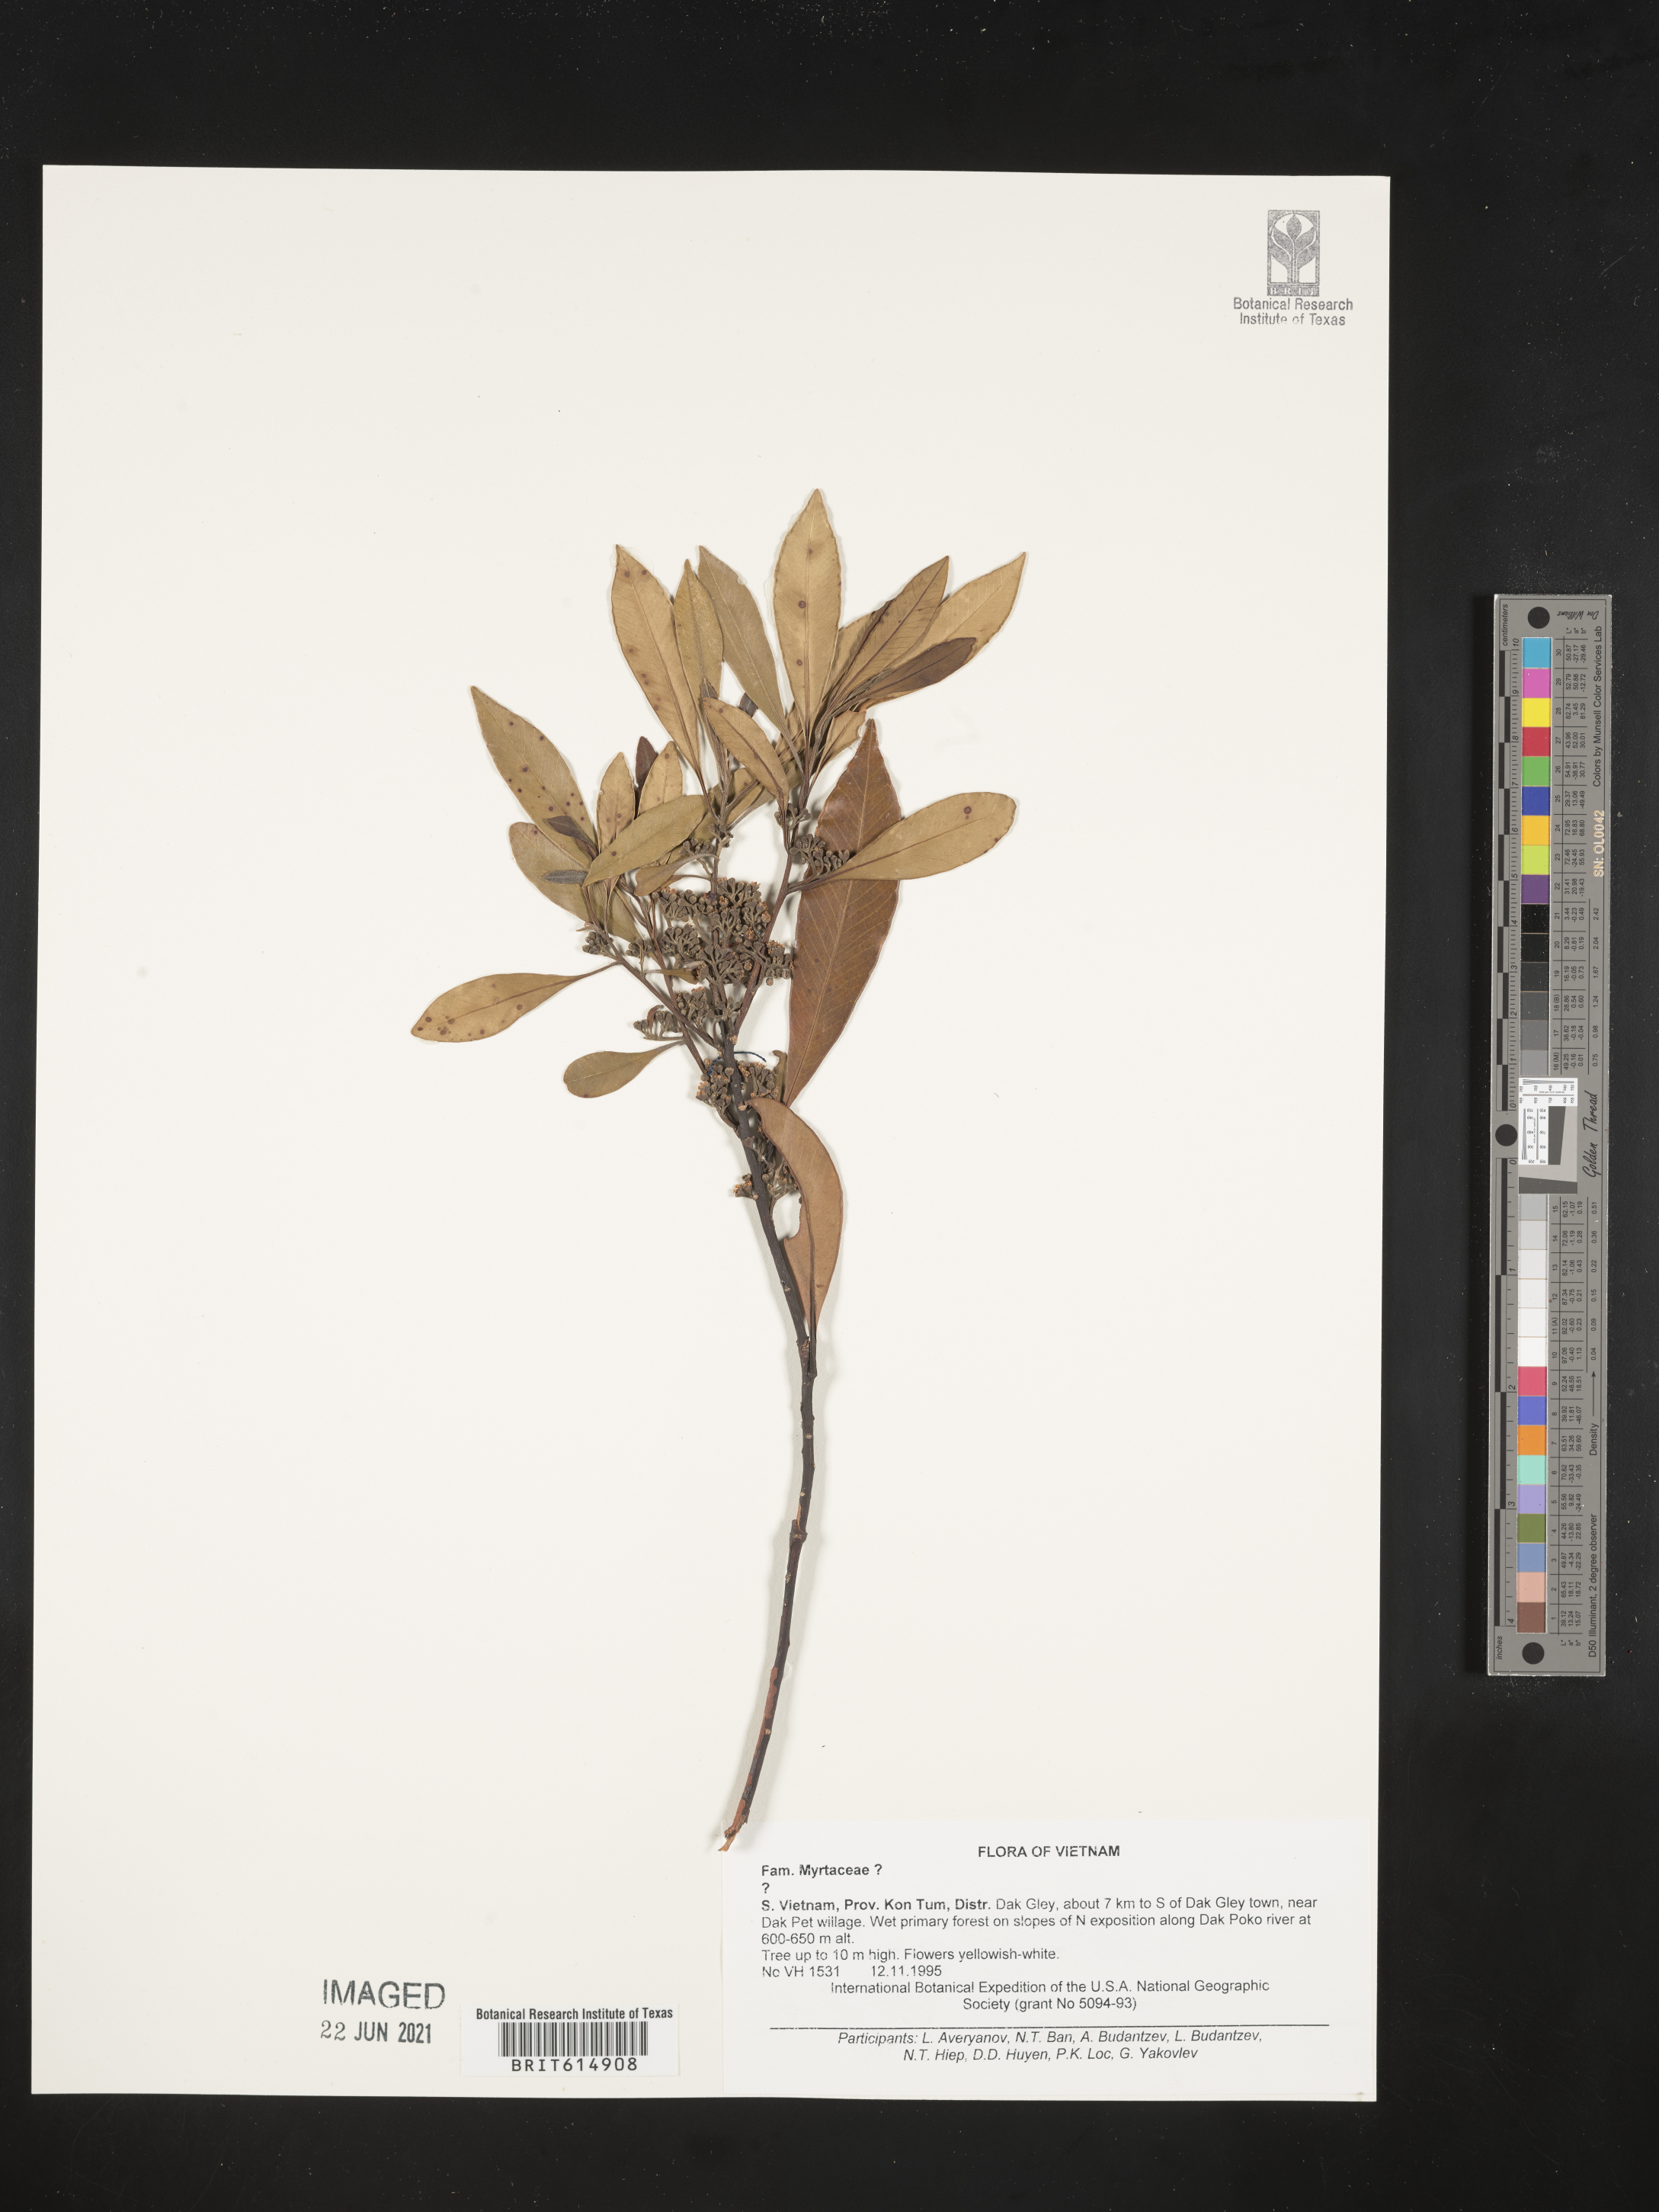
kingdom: Plantae
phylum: Tracheophyta
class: Magnoliopsida
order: Myrtales
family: Myrtaceae
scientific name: Myrtaceae
